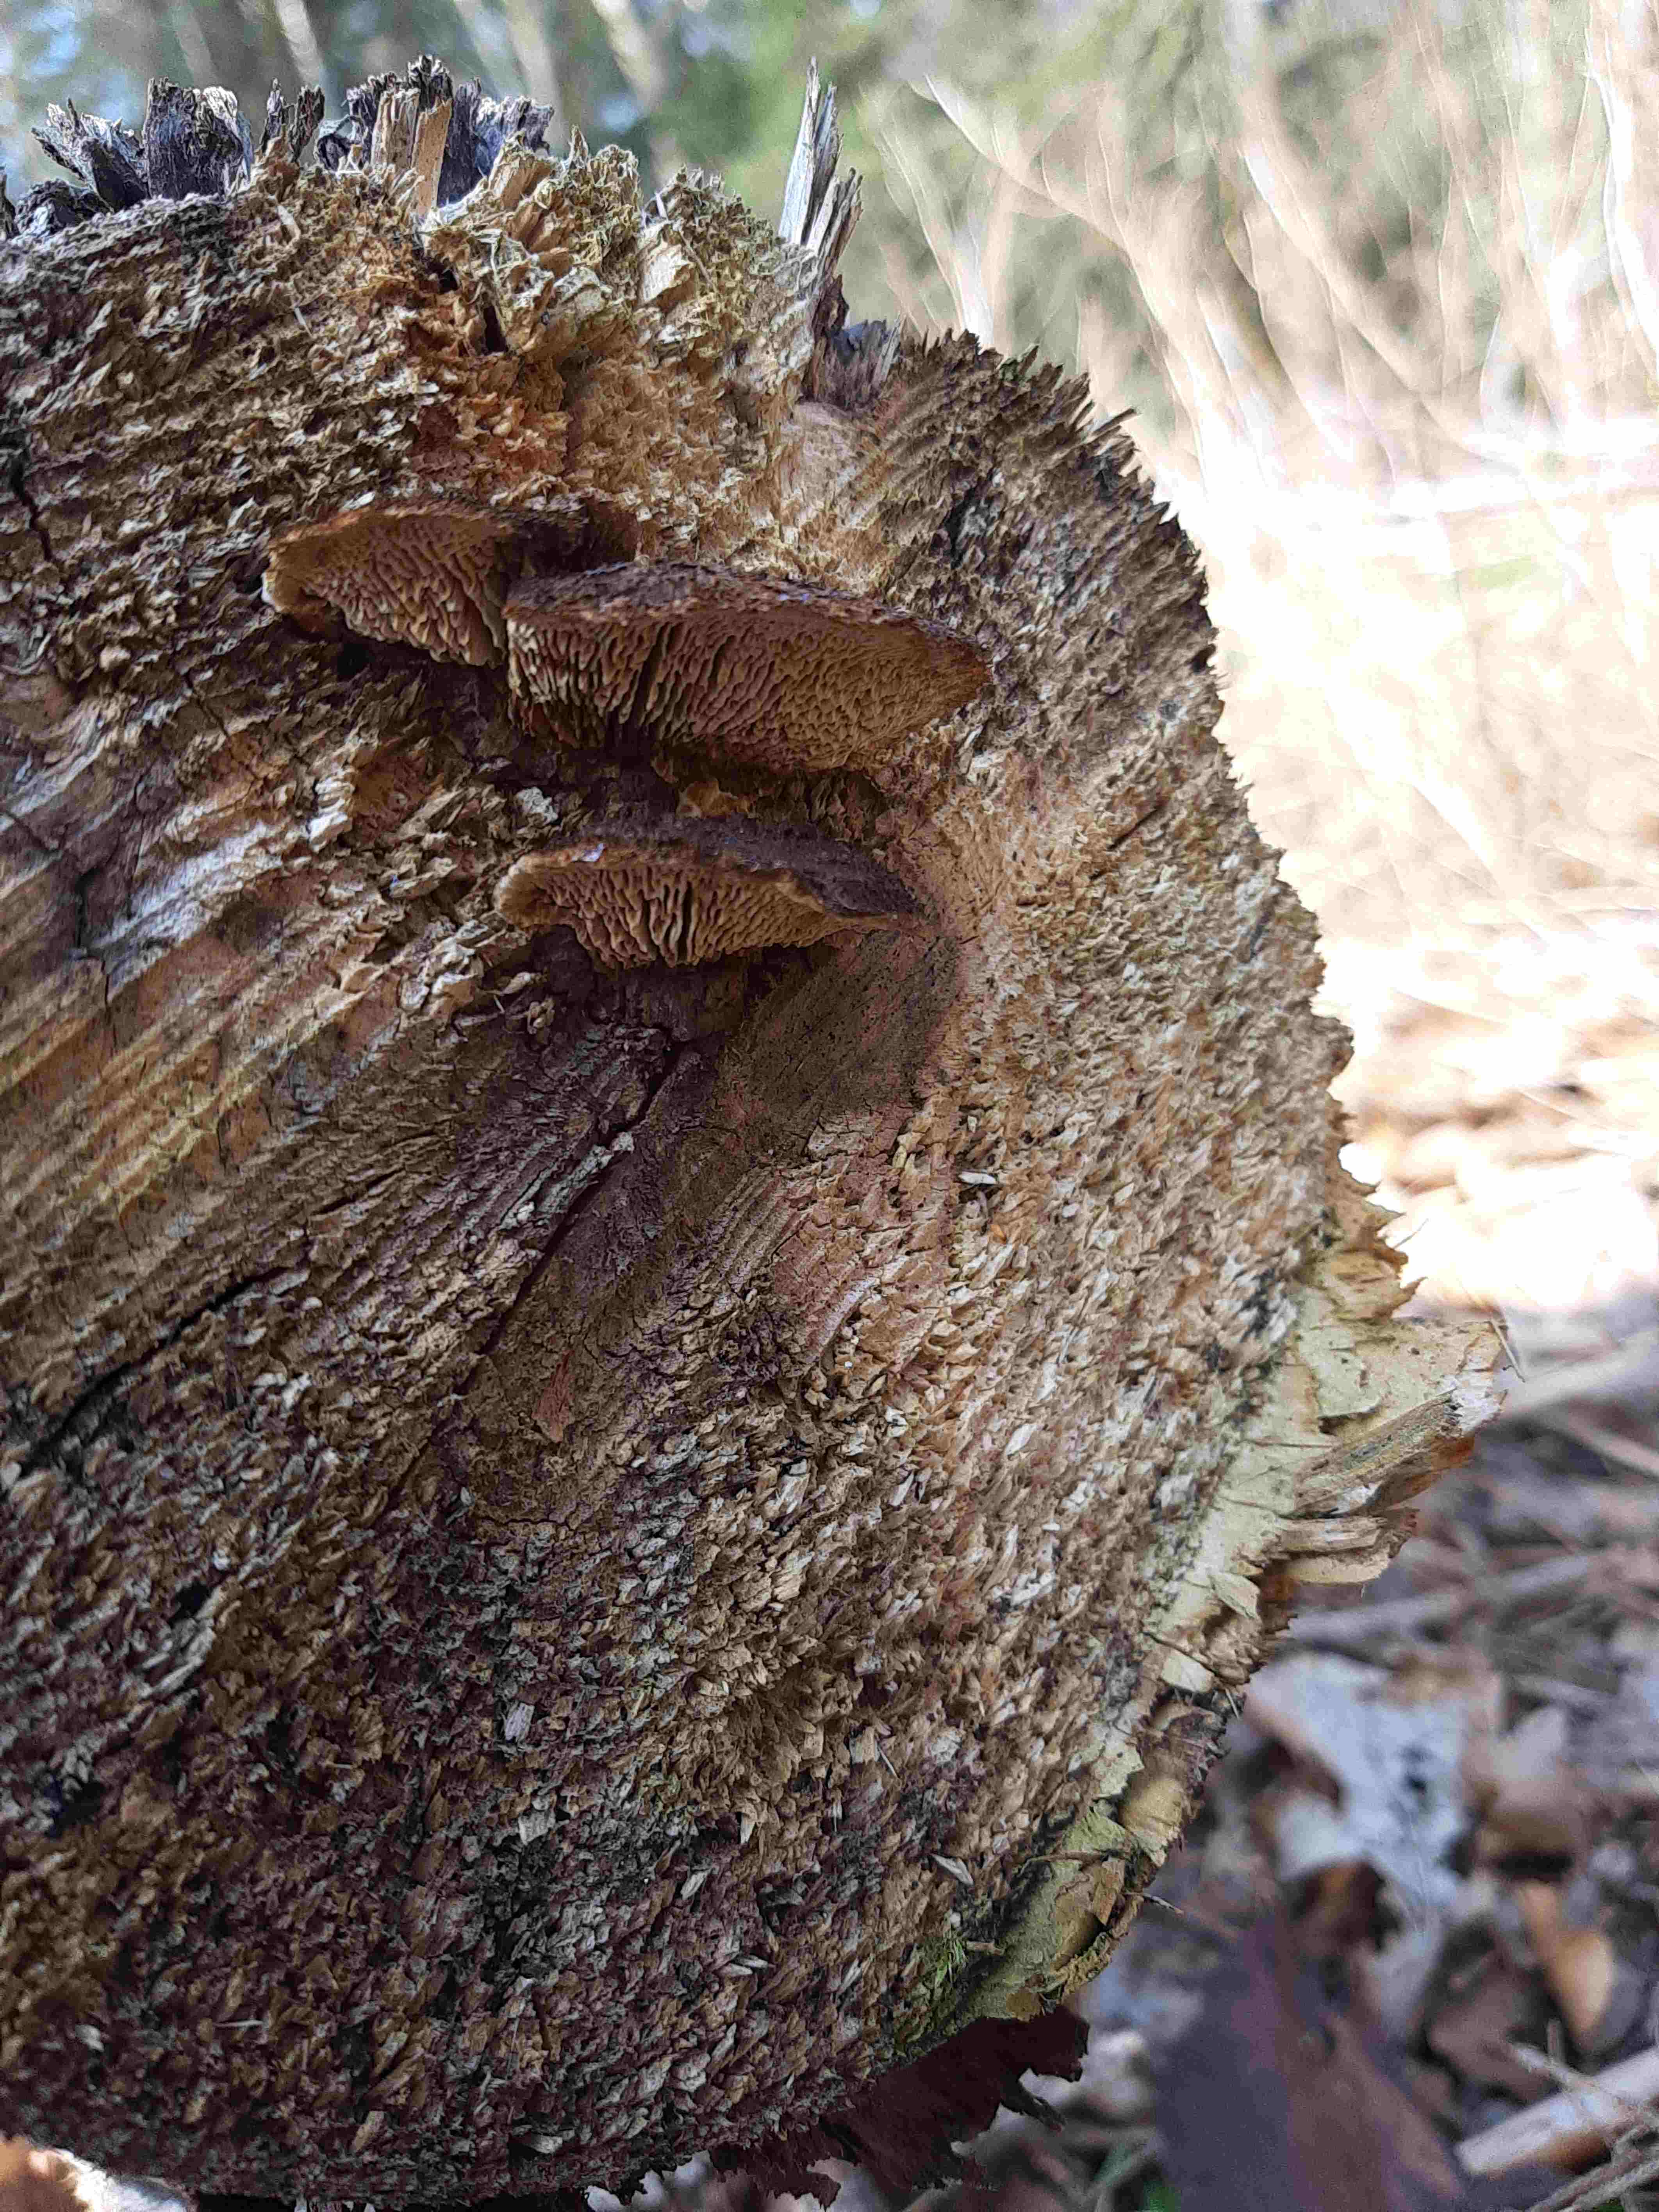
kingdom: Fungi
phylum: Basidiomycota
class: Agaricomycetes
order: Gloeophyllales
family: Gloeophyllaceae
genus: Gloeophyllum
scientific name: Gloeophyllum sepiarium
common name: fyrre-korkhat
